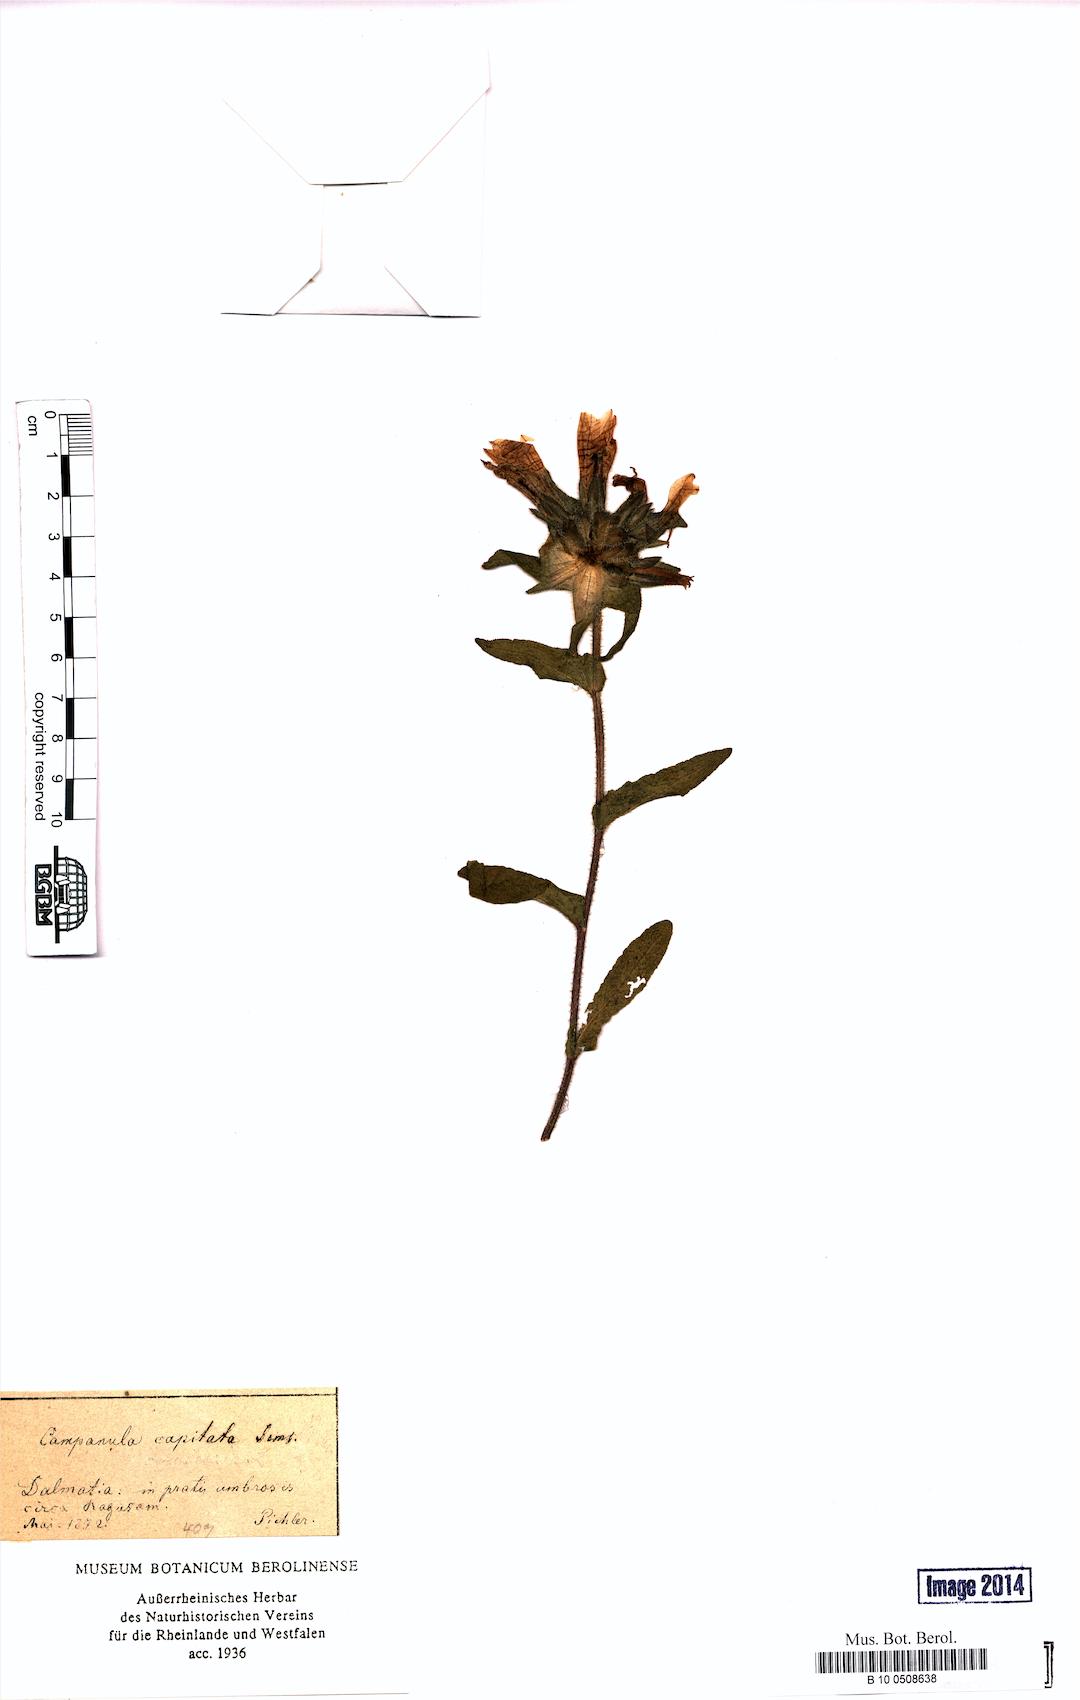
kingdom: Plantae
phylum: Tracheophyta
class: Magnoliopsida
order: Asterales
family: Campanulaceae
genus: Campanula
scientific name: Campanula lingulata
